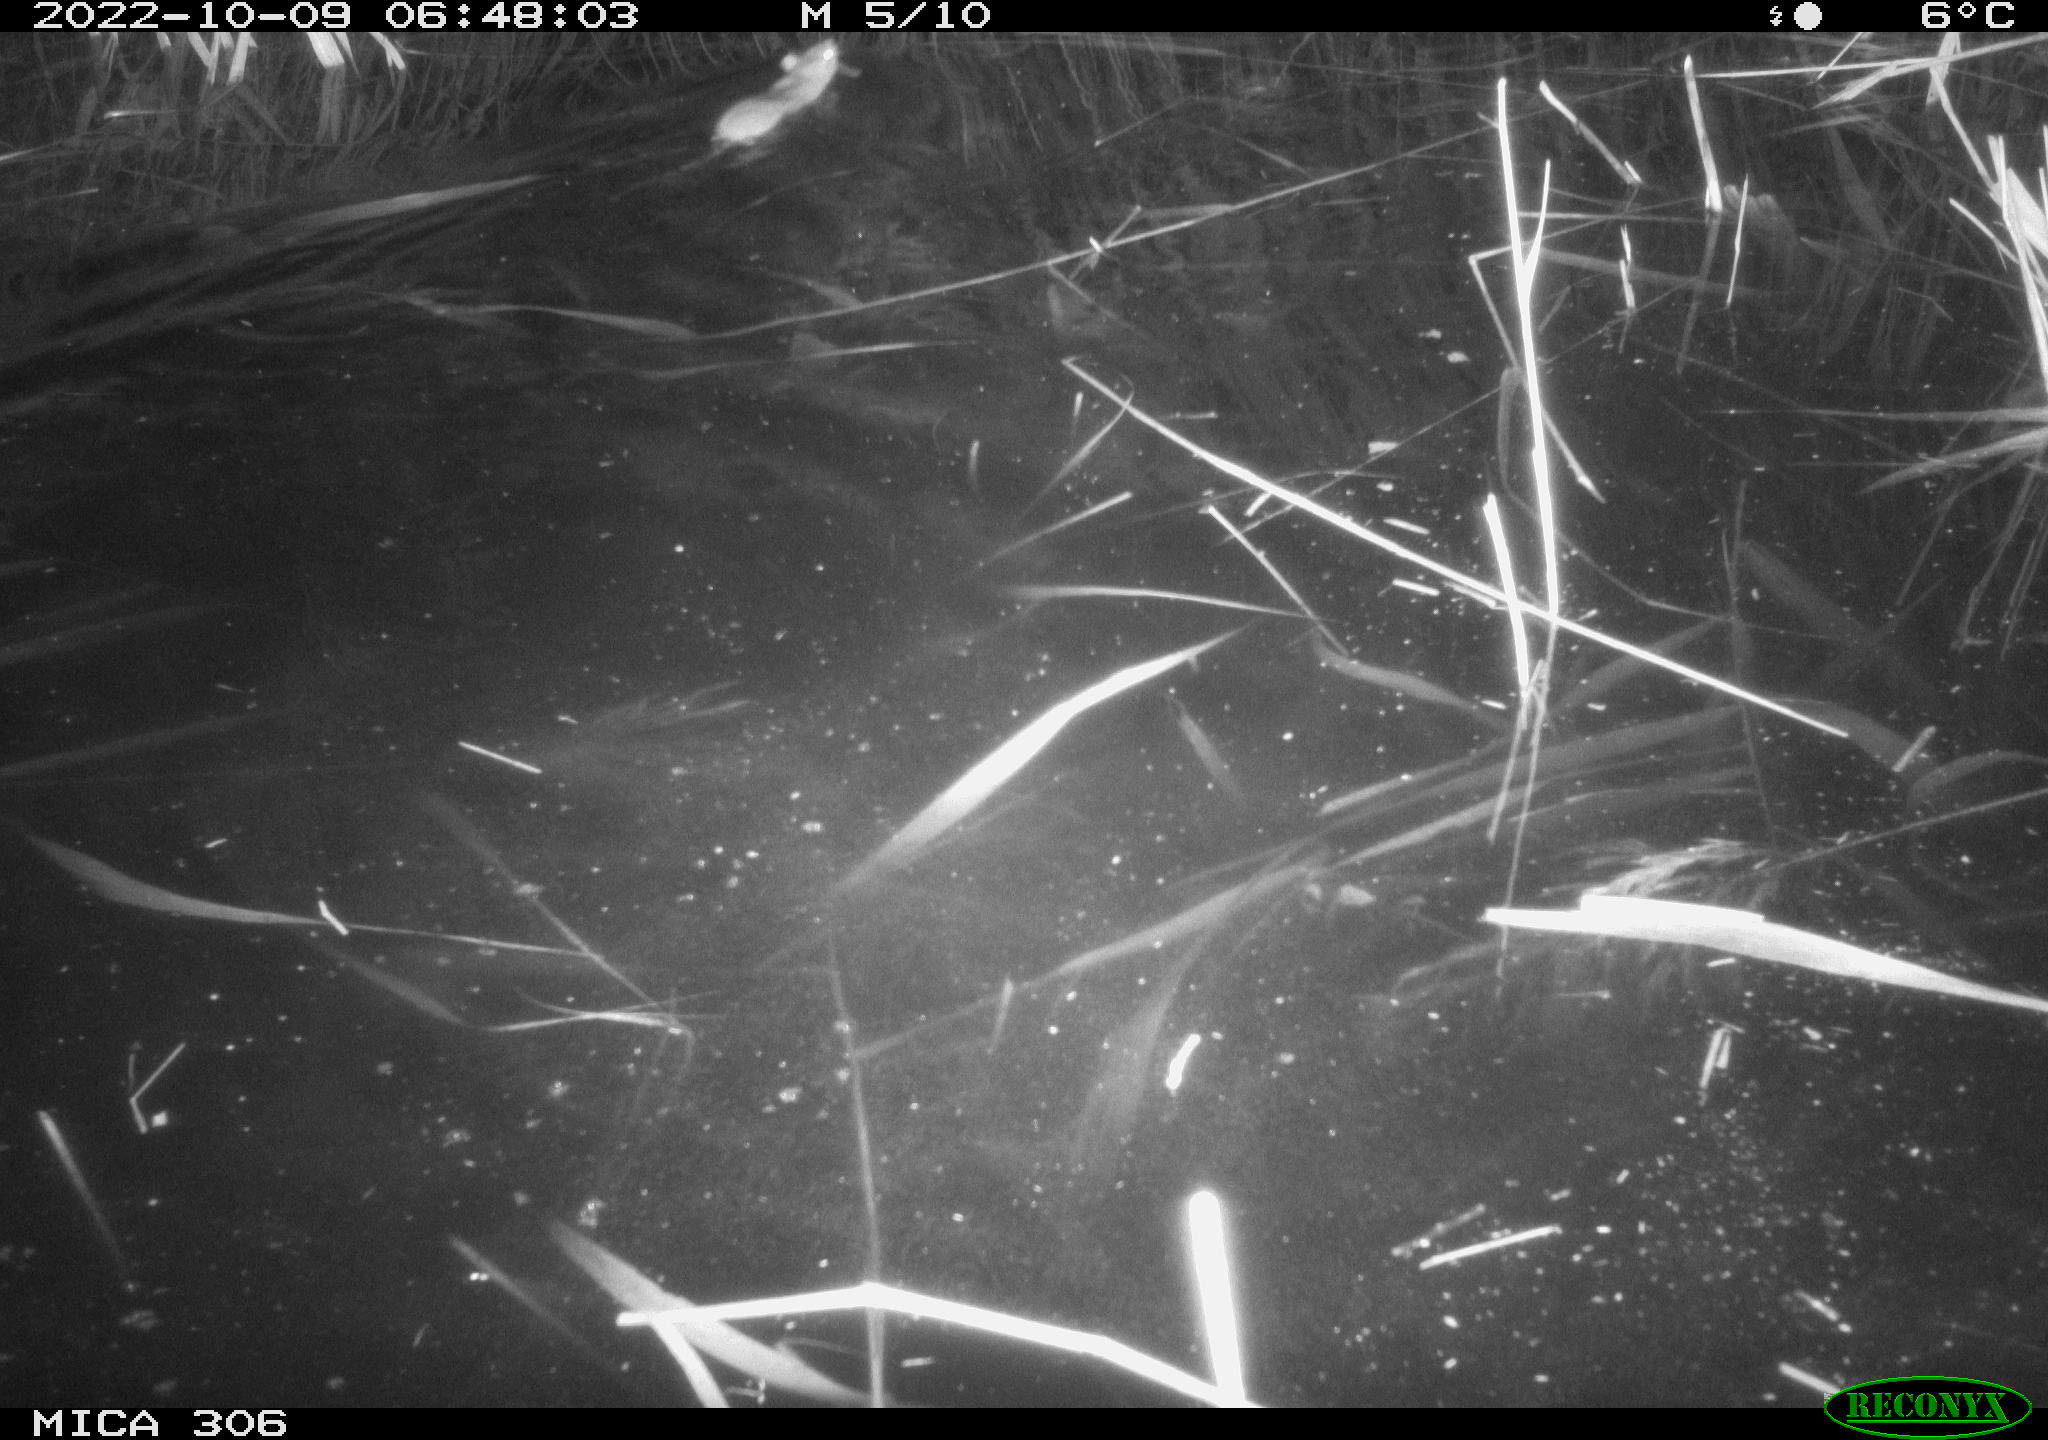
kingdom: Animalia
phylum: Chordata
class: Mammalia
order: Rodentia
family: Muridae
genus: Rattus
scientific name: Rattus norvegicus
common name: Brown rat
